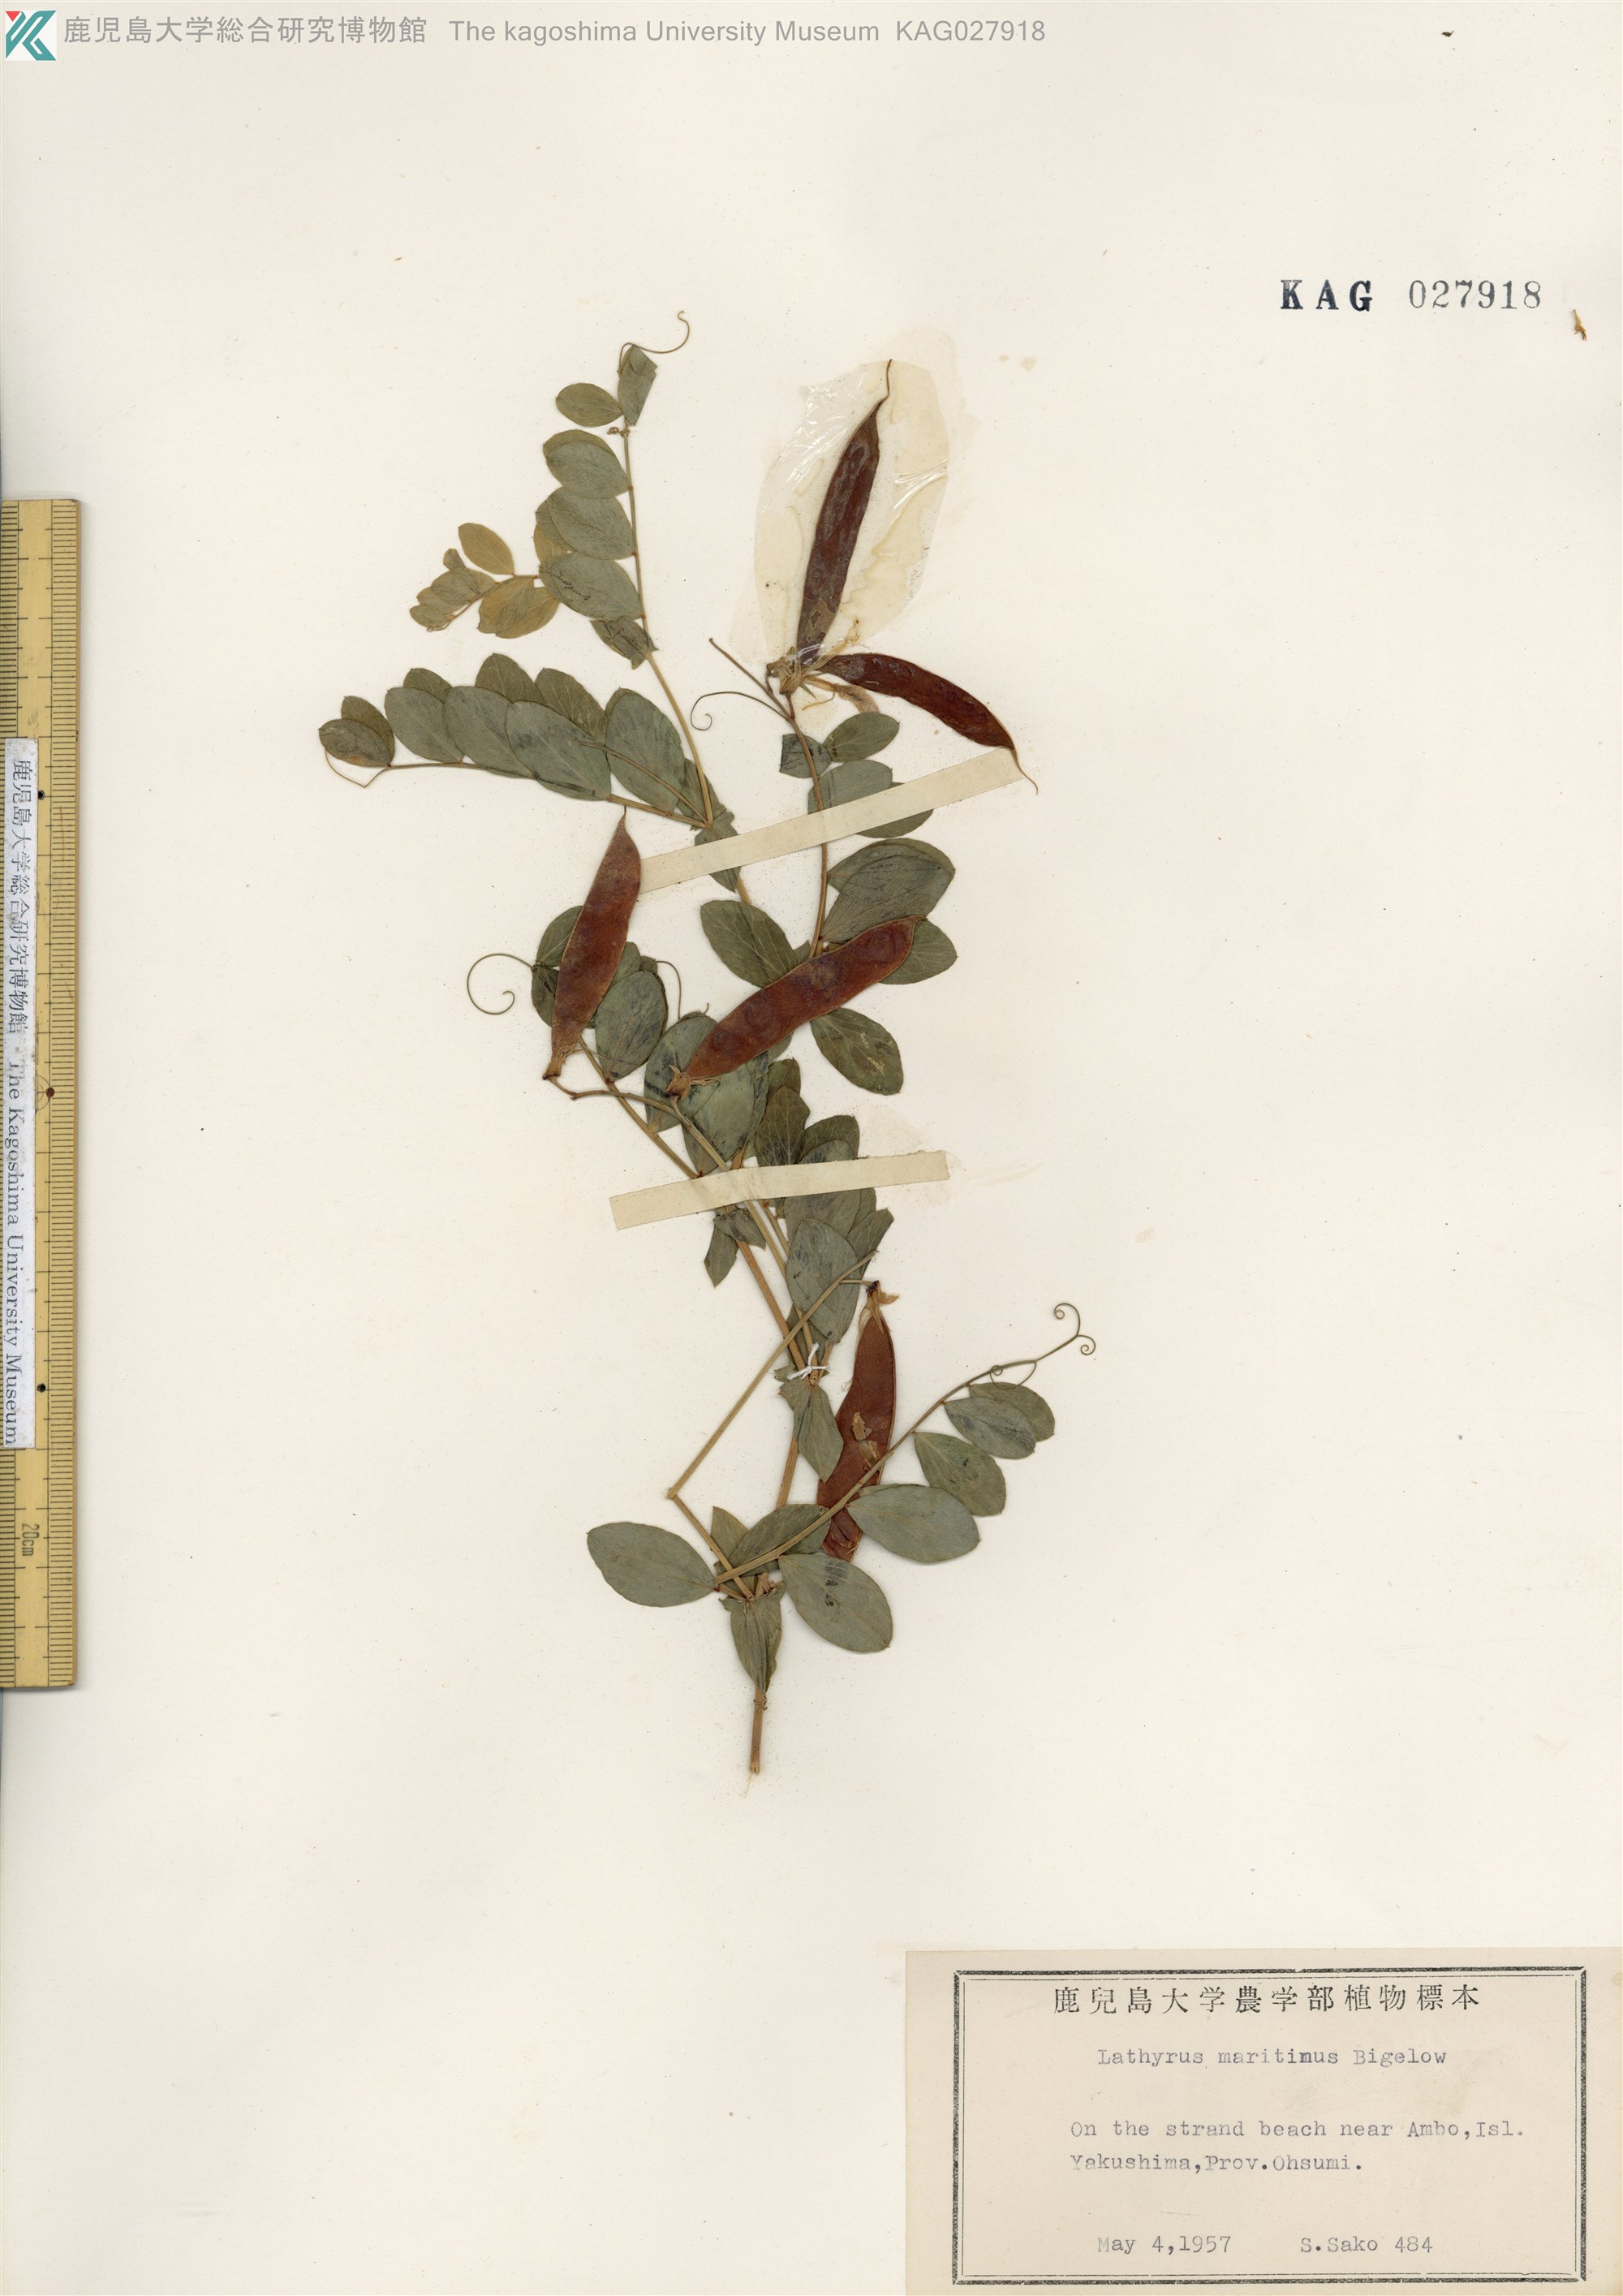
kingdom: Plantae
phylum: Tracheophyta
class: Magnoliopsida
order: Fabales
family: Fabaceae
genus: Lathyrus
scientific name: Lathyrus japonicus
